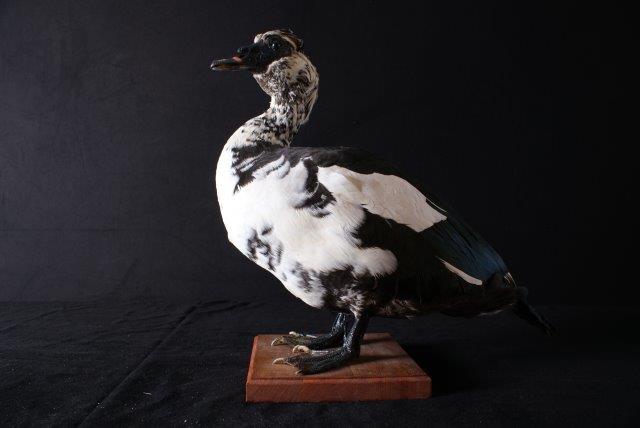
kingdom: Animalia
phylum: Chordata
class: Aves
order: Anseriformes
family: Anatidae
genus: Cairina
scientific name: Cairina moschata
